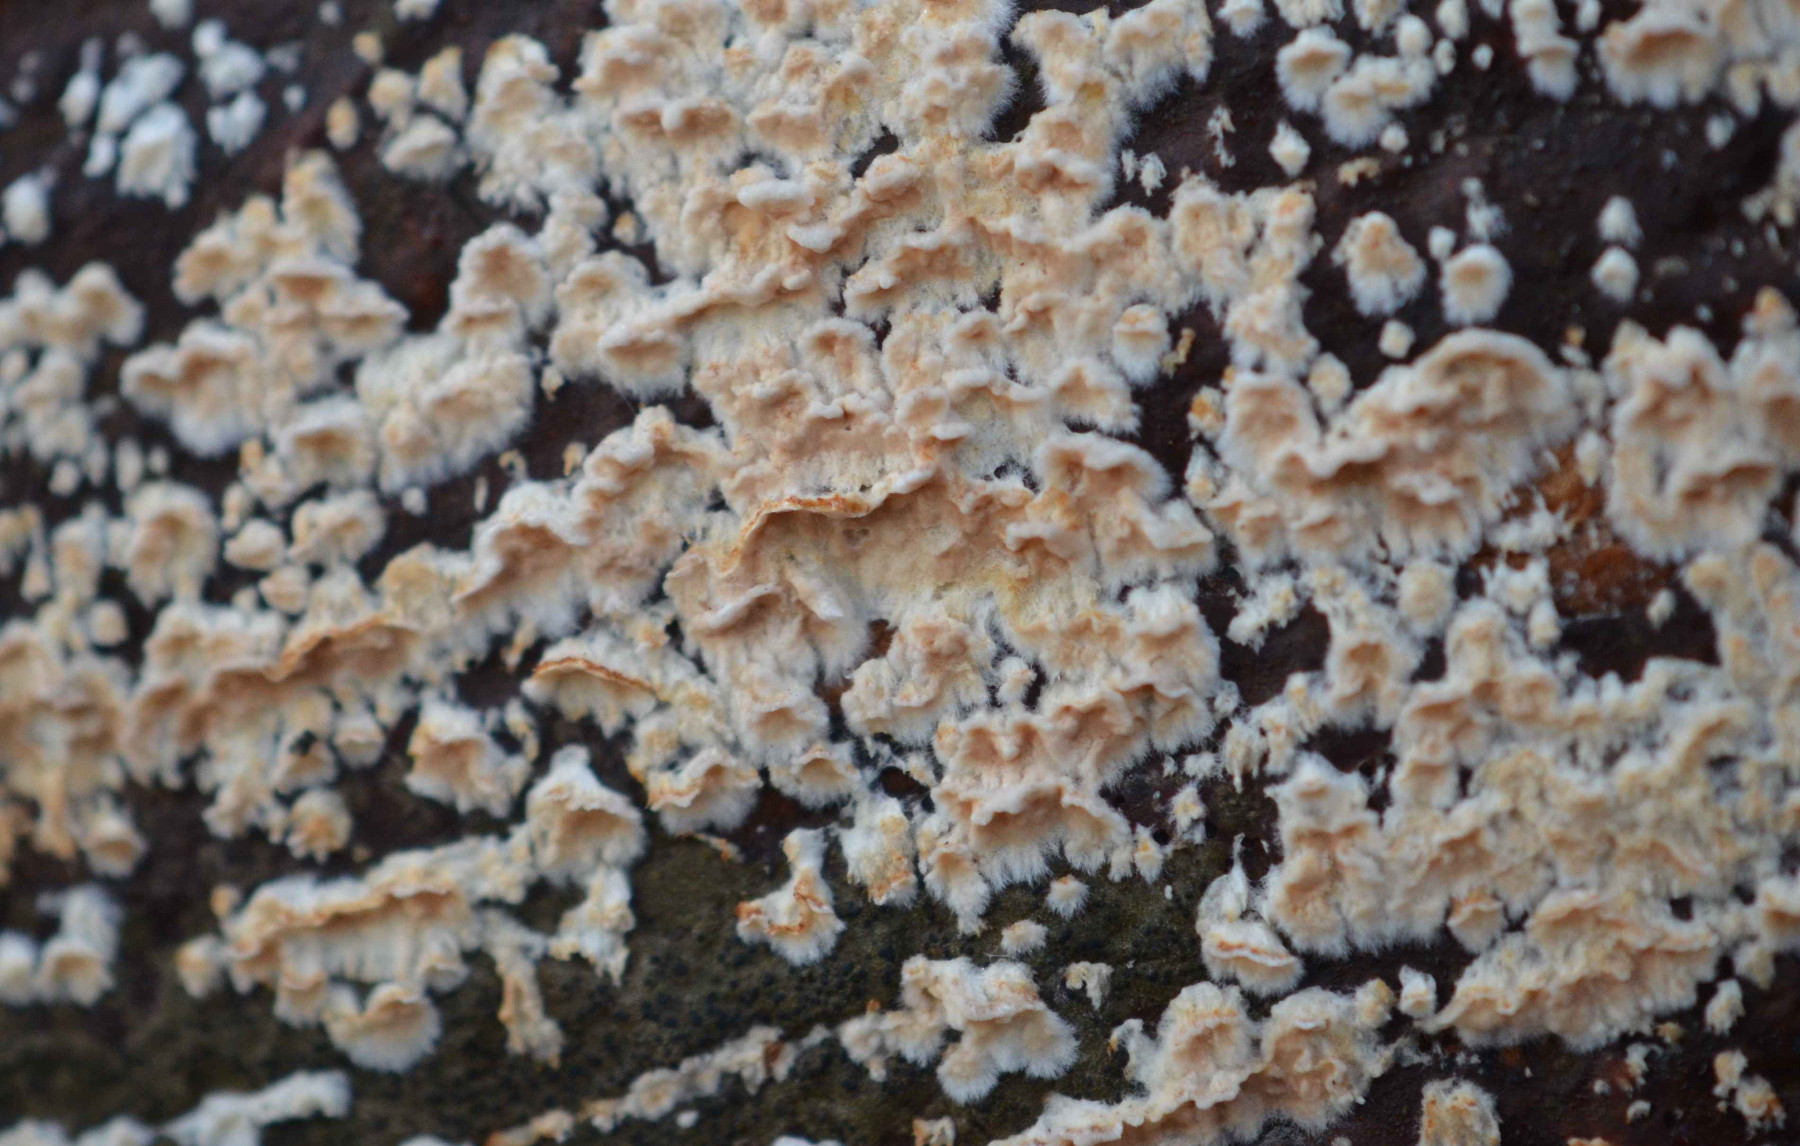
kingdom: Fungi
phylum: Basidiomycota
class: Agaricomycetes
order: Agaricales
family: Physalacriaceae
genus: Cylindrobasidium
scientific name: Cylindrobasidium
